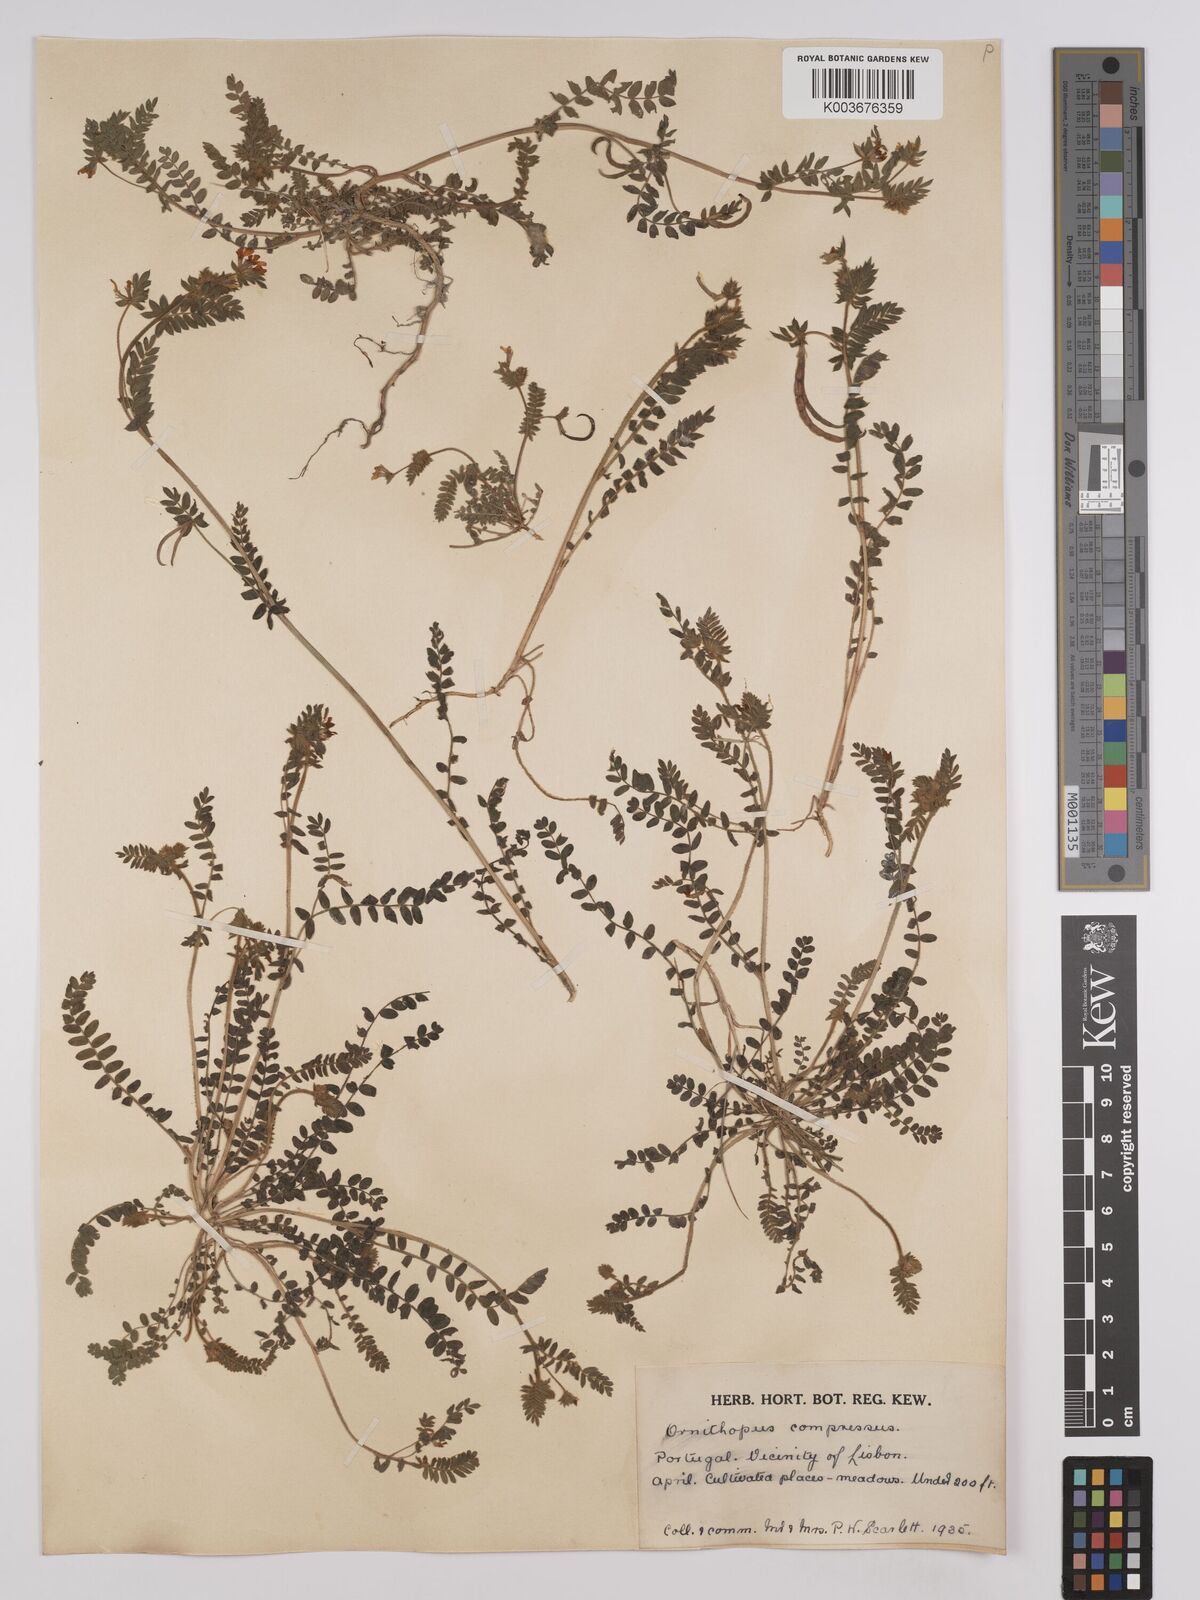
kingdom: Plantae
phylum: Tracheophyta
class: Magnoliopsida
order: Fabales
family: Fabaceae
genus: Ornithopus
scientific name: Ornithopus compressus
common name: Yellow serradella
